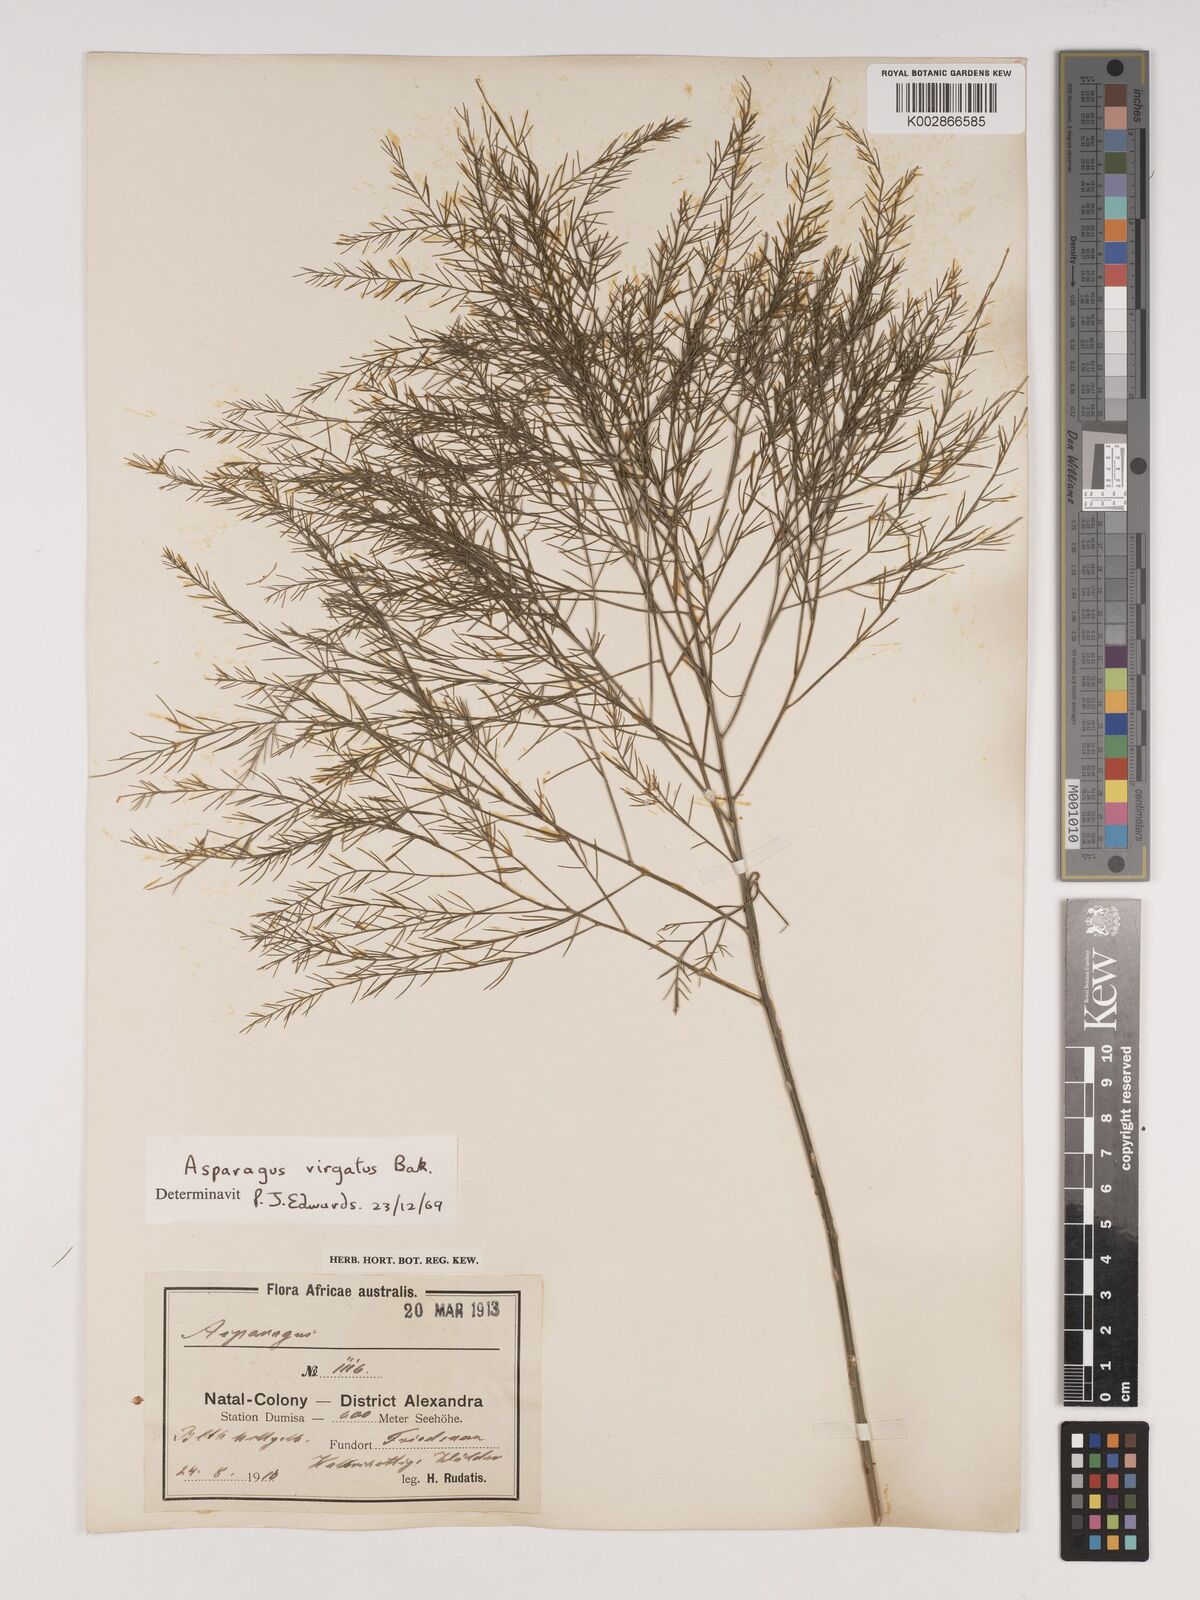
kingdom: Plantae
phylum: Tracheophyta
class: Liliopsida
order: Asparagales
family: Asparagaceae
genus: Asparagus
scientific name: Asparagus virgatus
